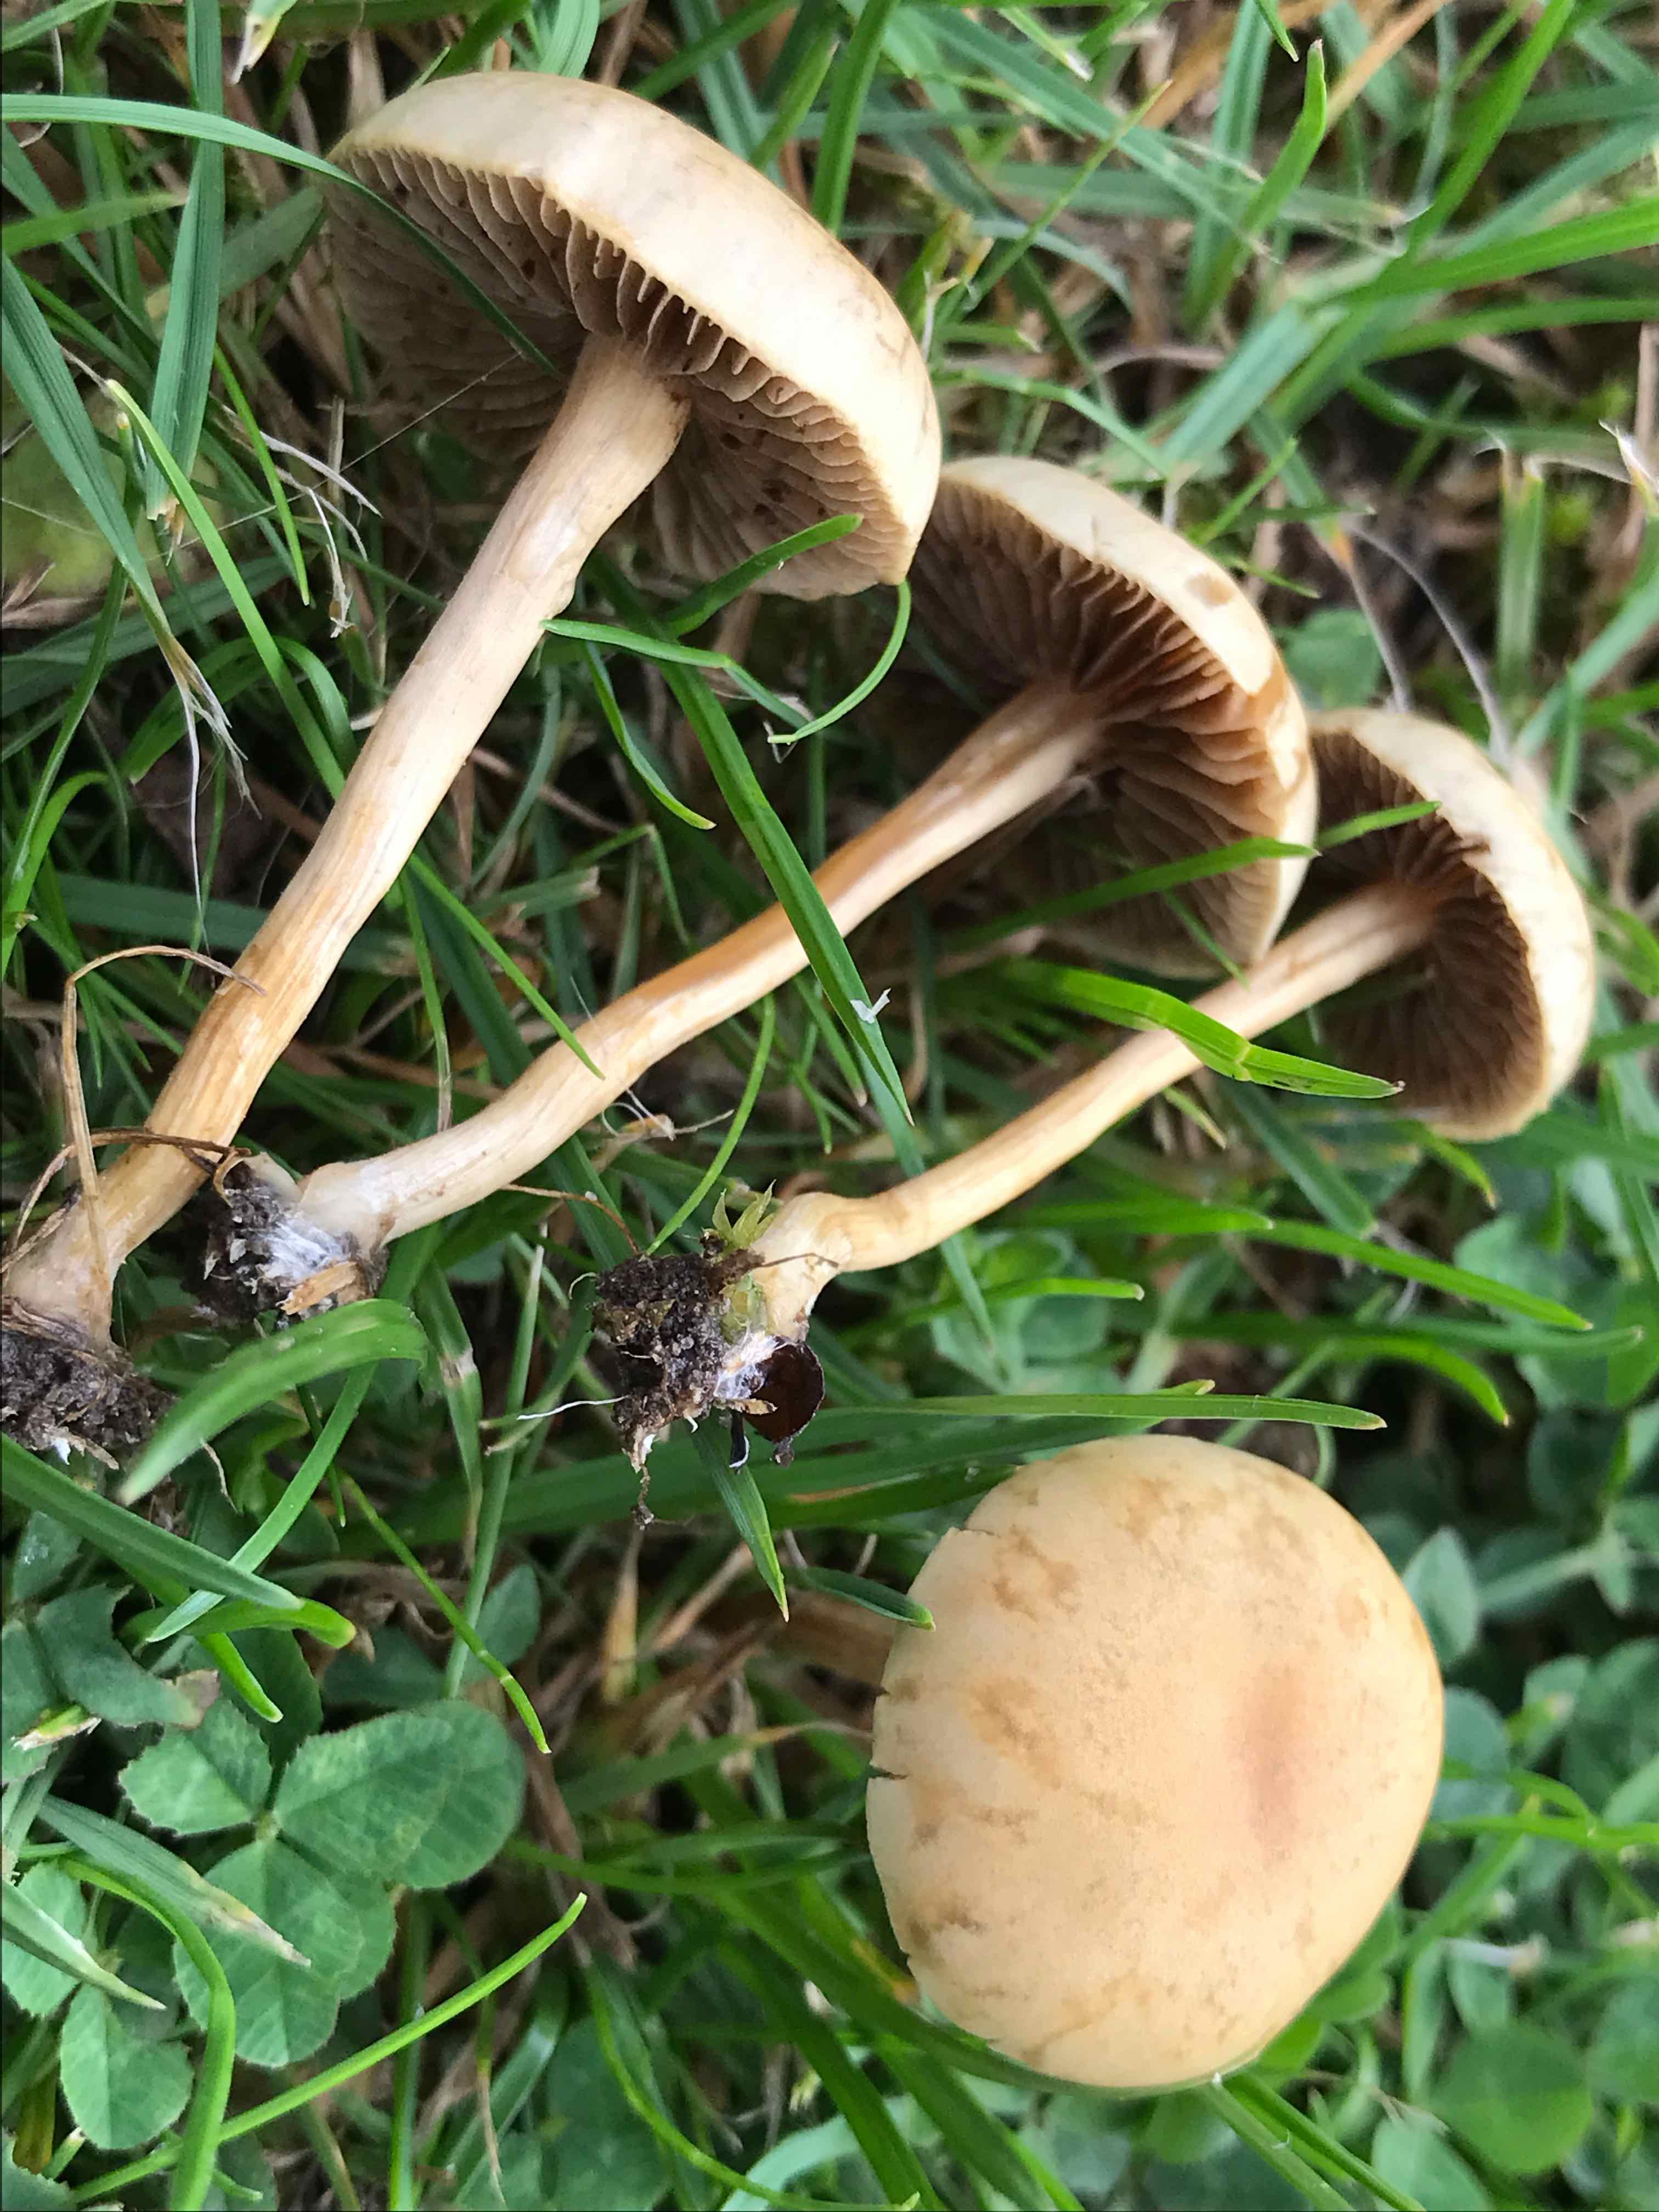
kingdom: Fungi
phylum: Basidiomycota
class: Agaricomycetes
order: Agaricales
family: Strophariaceae
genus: Agrocybe
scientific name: Agrocybe pediades
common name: almindelig agerhat
